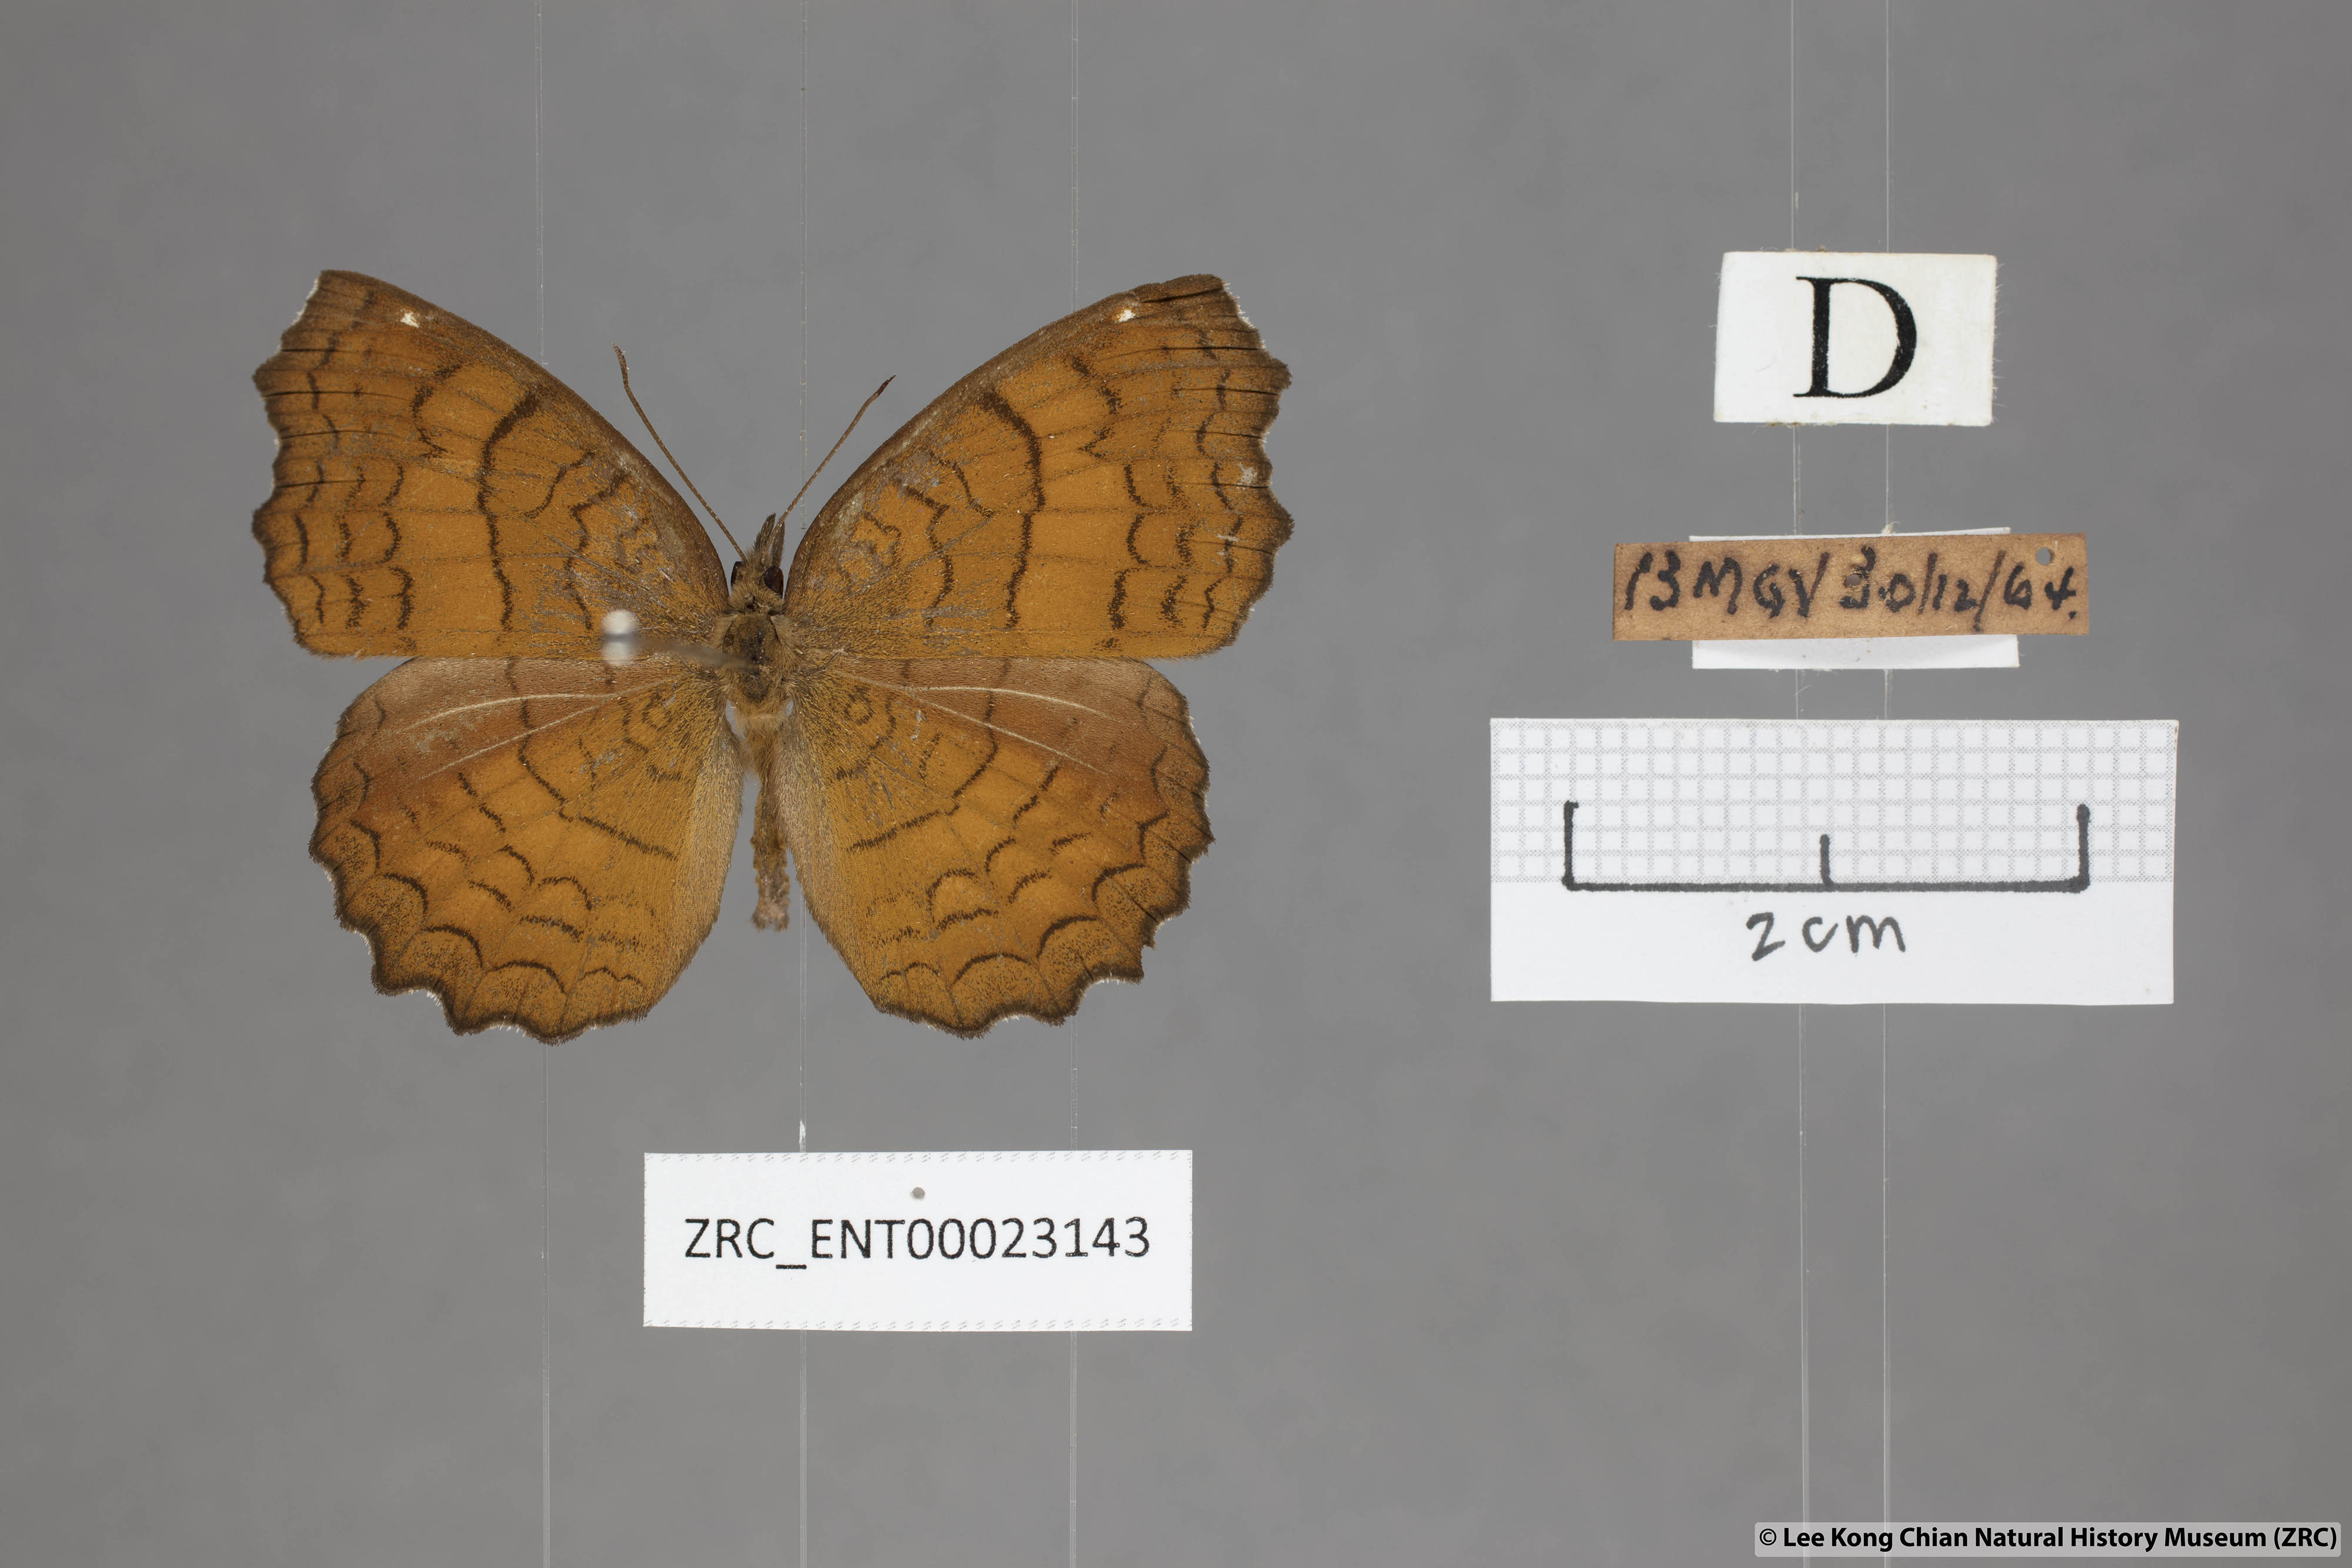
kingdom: Animalia
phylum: Arthropoda
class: Insecta
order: Lepidoptera
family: Nymphalidae
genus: Ariadne
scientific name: Ariadne ariadne
